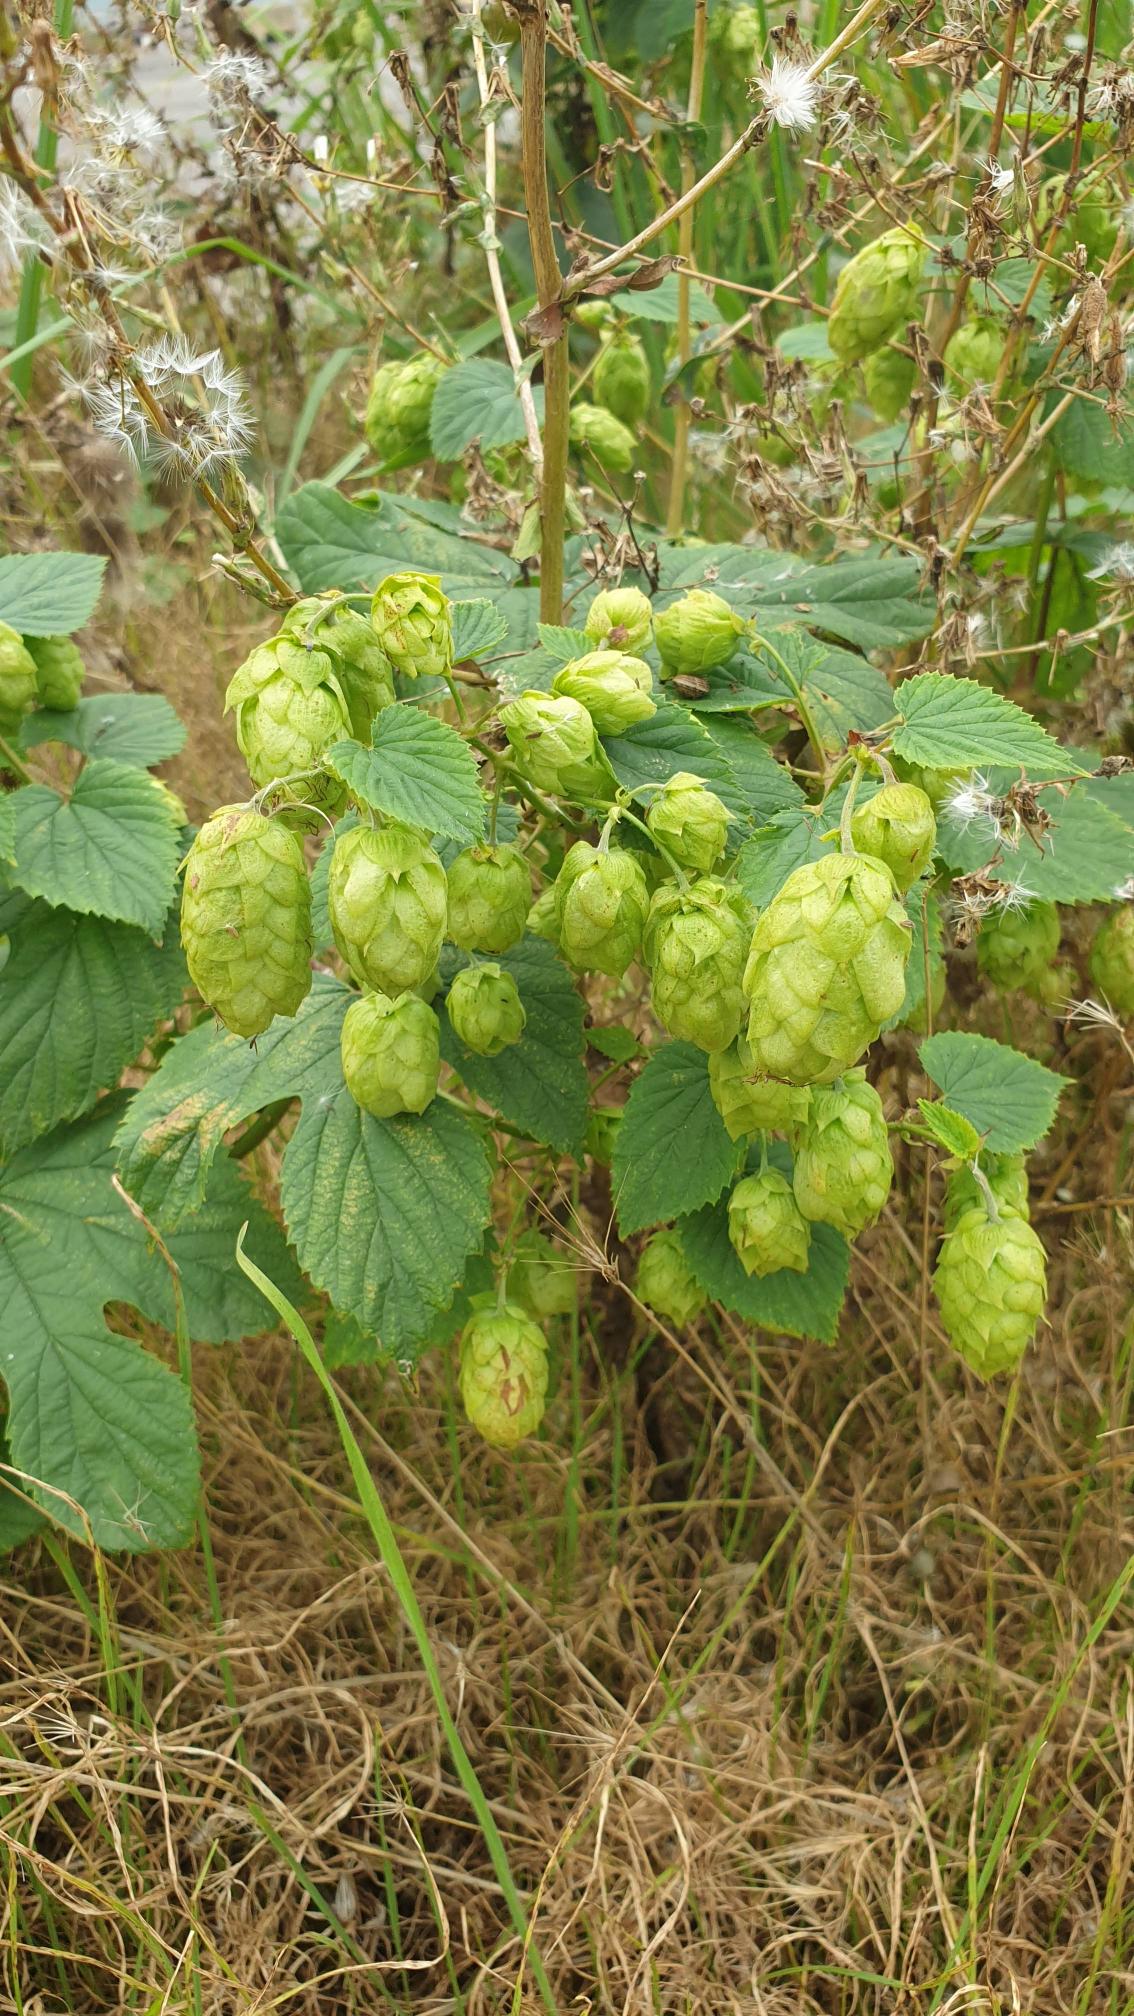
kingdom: Plantae
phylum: Tracheophyta
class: Magnoliopsida
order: Rosales
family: Cannabaceae
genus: Humulus
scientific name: Humulus lupulus
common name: Humle
